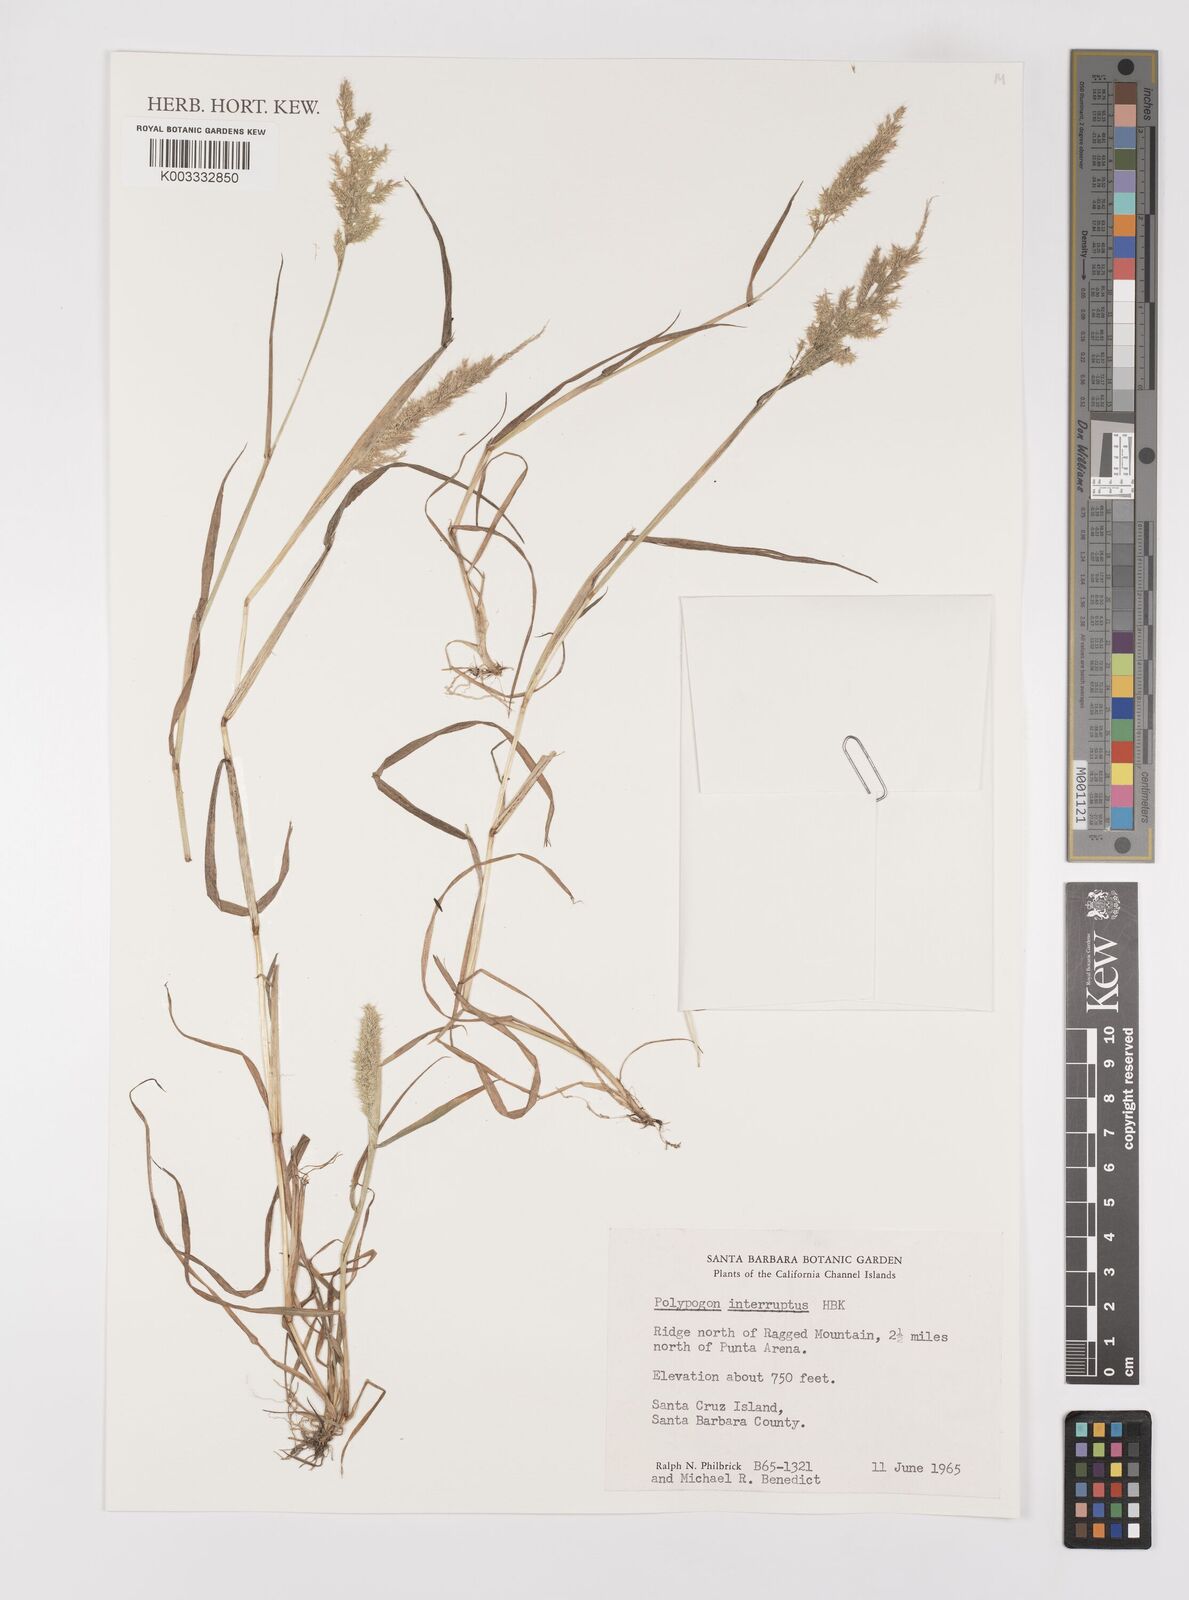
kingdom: Plantae
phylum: Tracheophyta
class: Liliopsida
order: Poales
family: Poaceae
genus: Polypogon
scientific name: Polypogon interruptus
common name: Ditch polypogon
